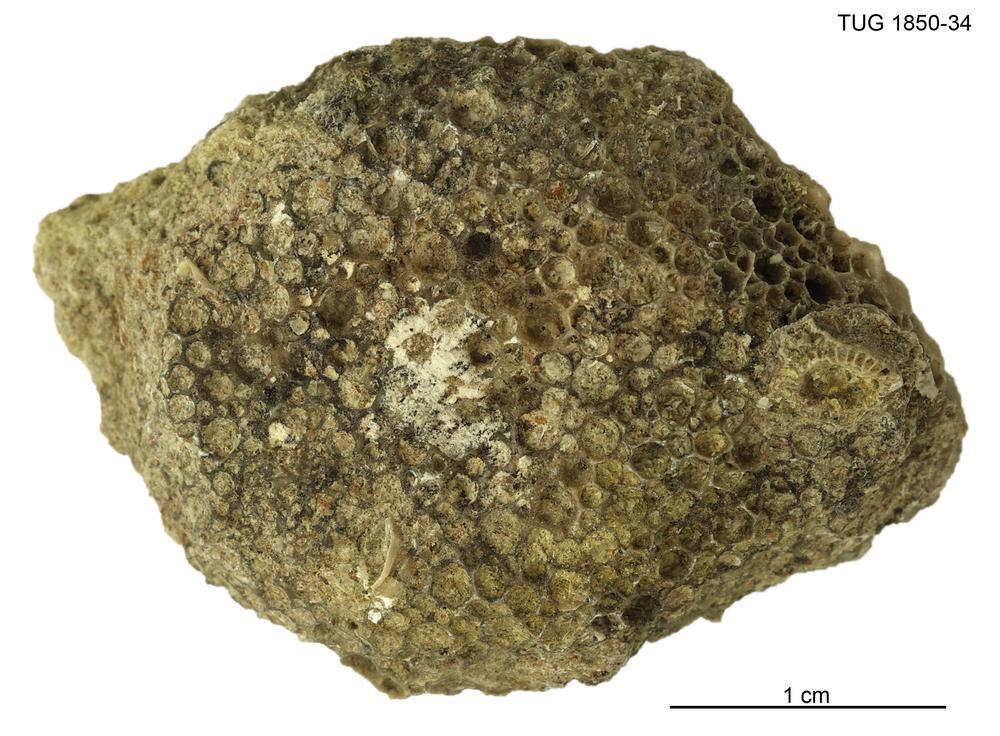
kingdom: Animalia
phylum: Cnidaria
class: Anthozoa
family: Favositidae
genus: Favosites
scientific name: Favosites
